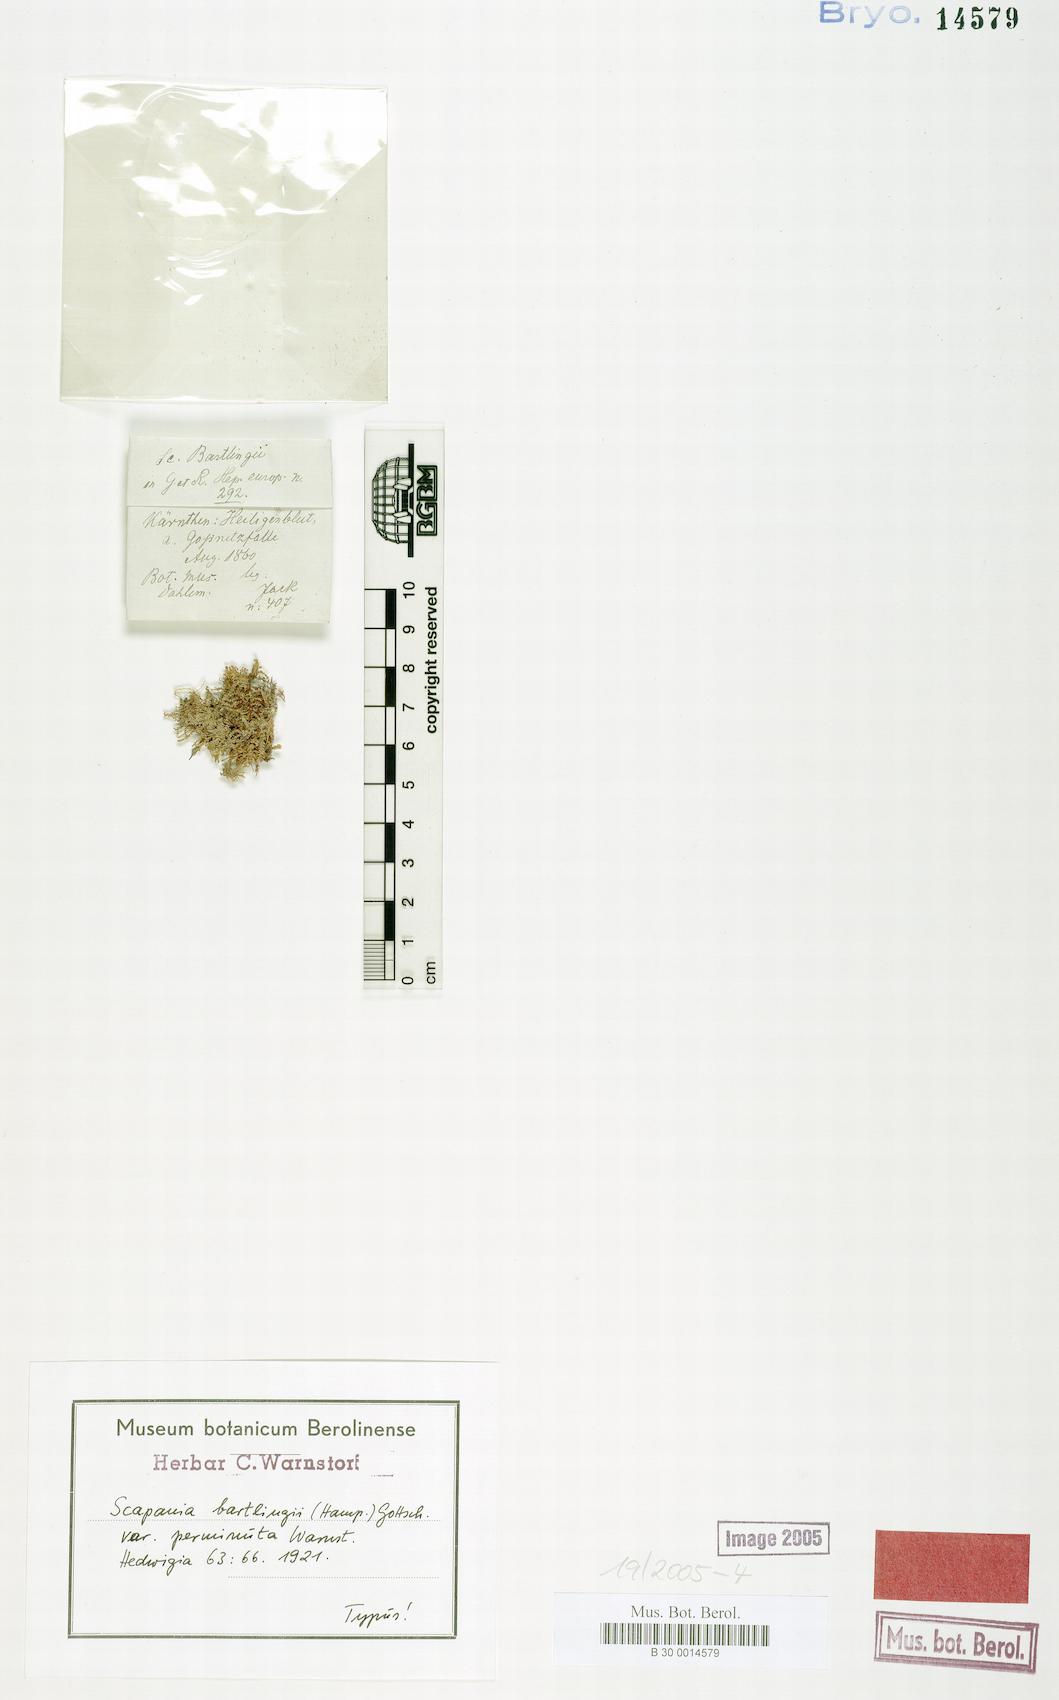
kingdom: Plantae
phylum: Marchantiophyta
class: Jungermanniopsida
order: Jungermanniales
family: Scapaniaceae
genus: Scapania
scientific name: Scapania cuspiduligera
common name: Untidy earwort
